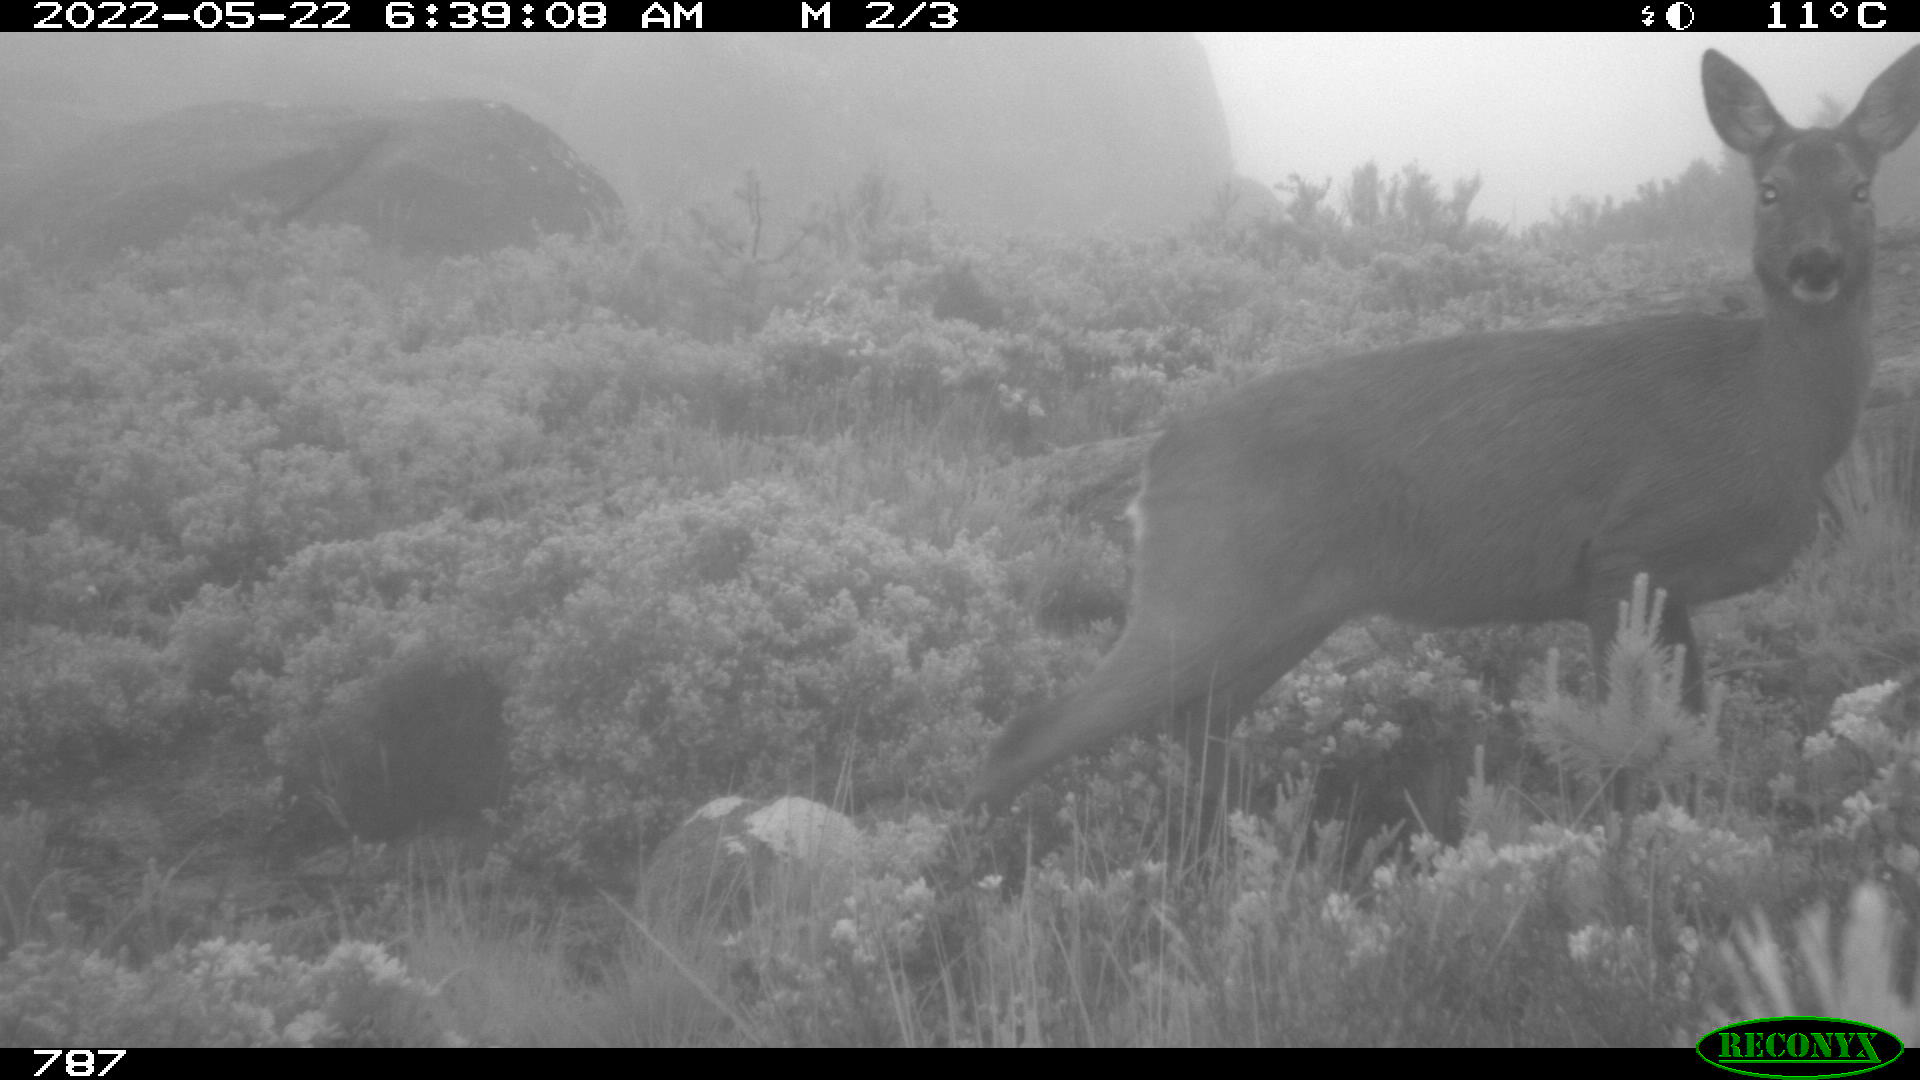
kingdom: Animalia
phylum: Chordata
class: Mammalia
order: Artiodactyla
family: Cervidae
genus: Capreolus
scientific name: Capreolus capreolus
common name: Western roe deer
